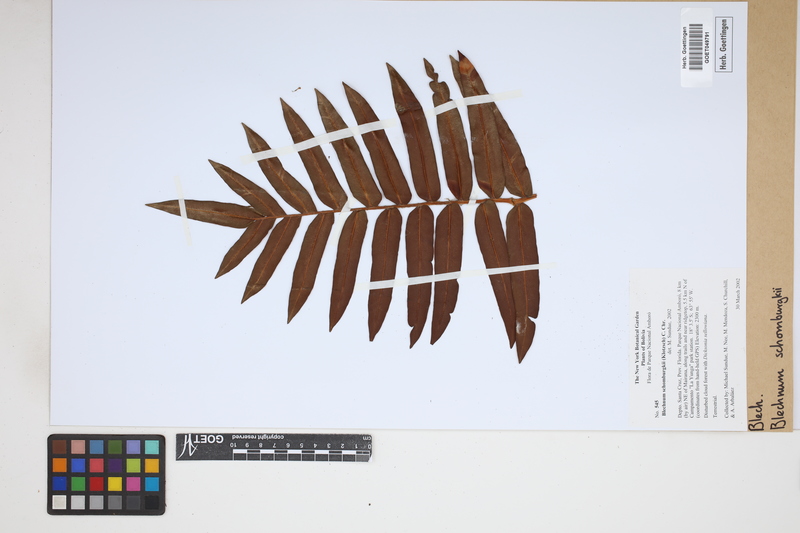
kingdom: Plantae
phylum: Tracheophyta
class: Polypodiopsida
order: Polypodiales
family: Blechnaceae
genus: Lomariocycas
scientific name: Lomariocycas schomburgkii
